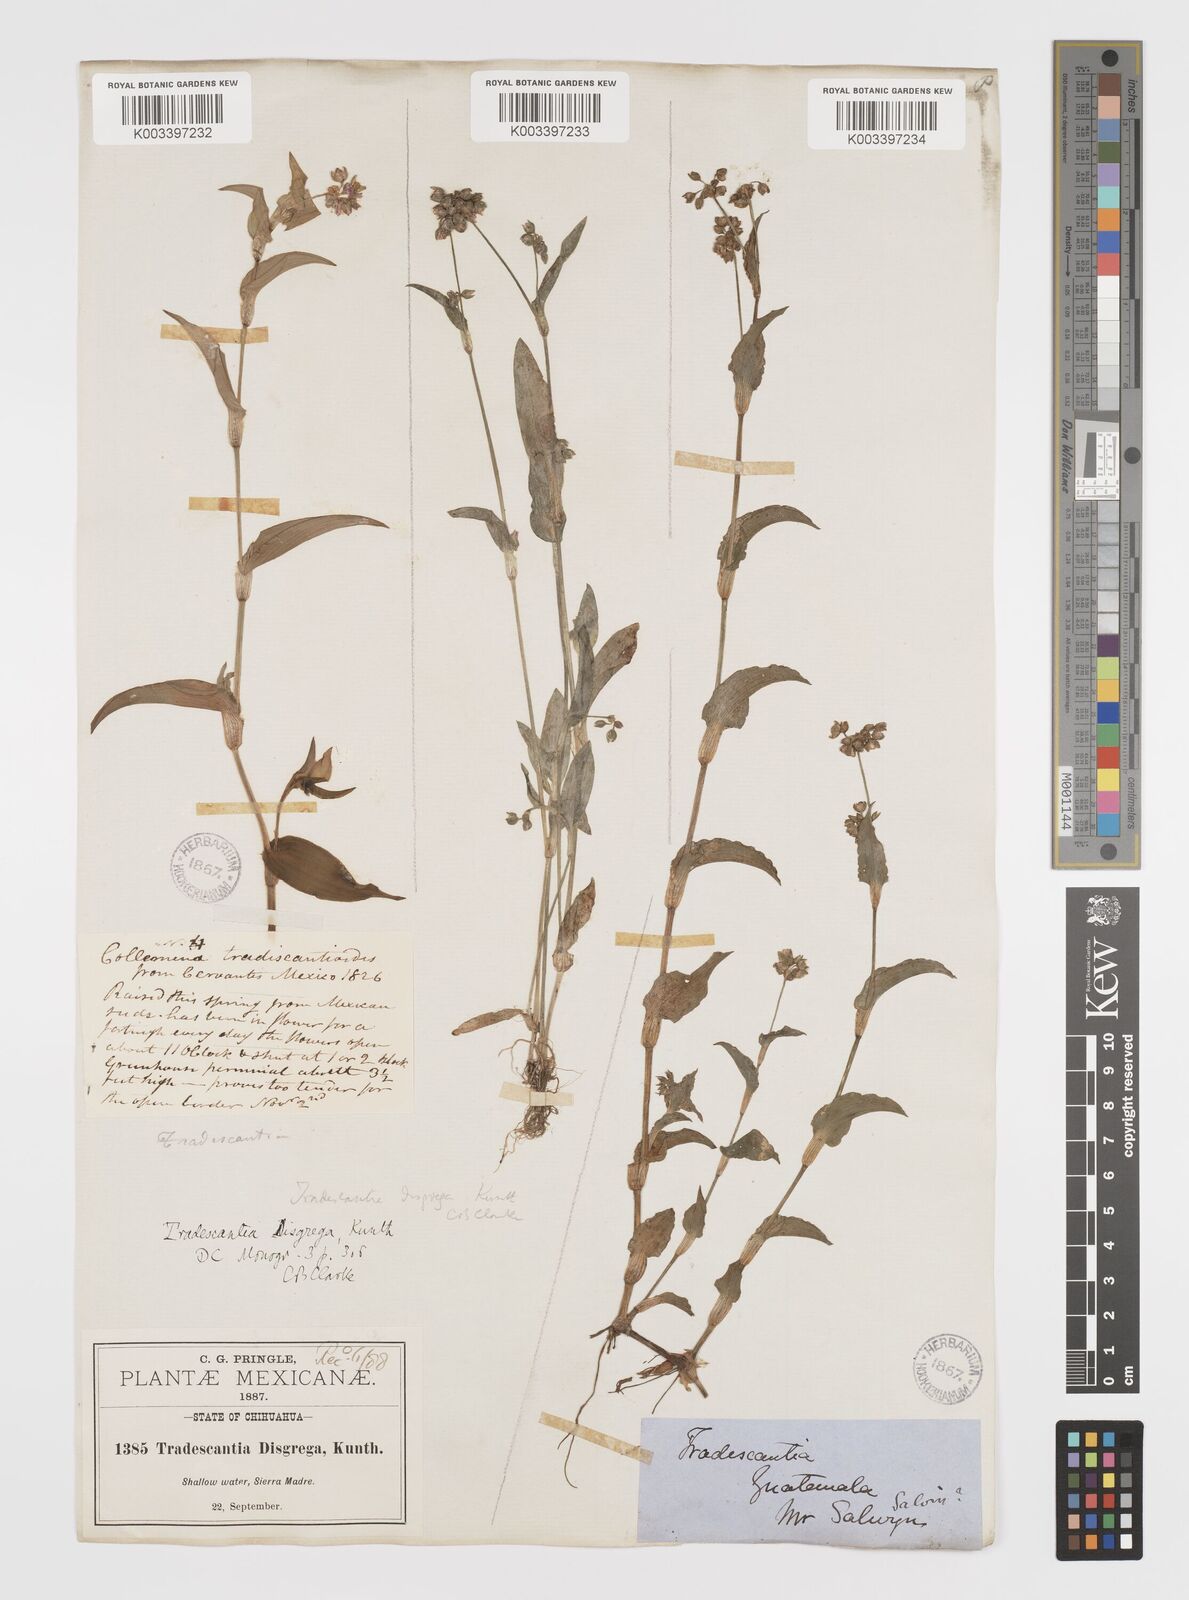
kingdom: Plantae
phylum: Tracheophyta
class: Liliopsida
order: Commelinales
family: Commelinaceae
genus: Callisia
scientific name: Callisia disgrega
